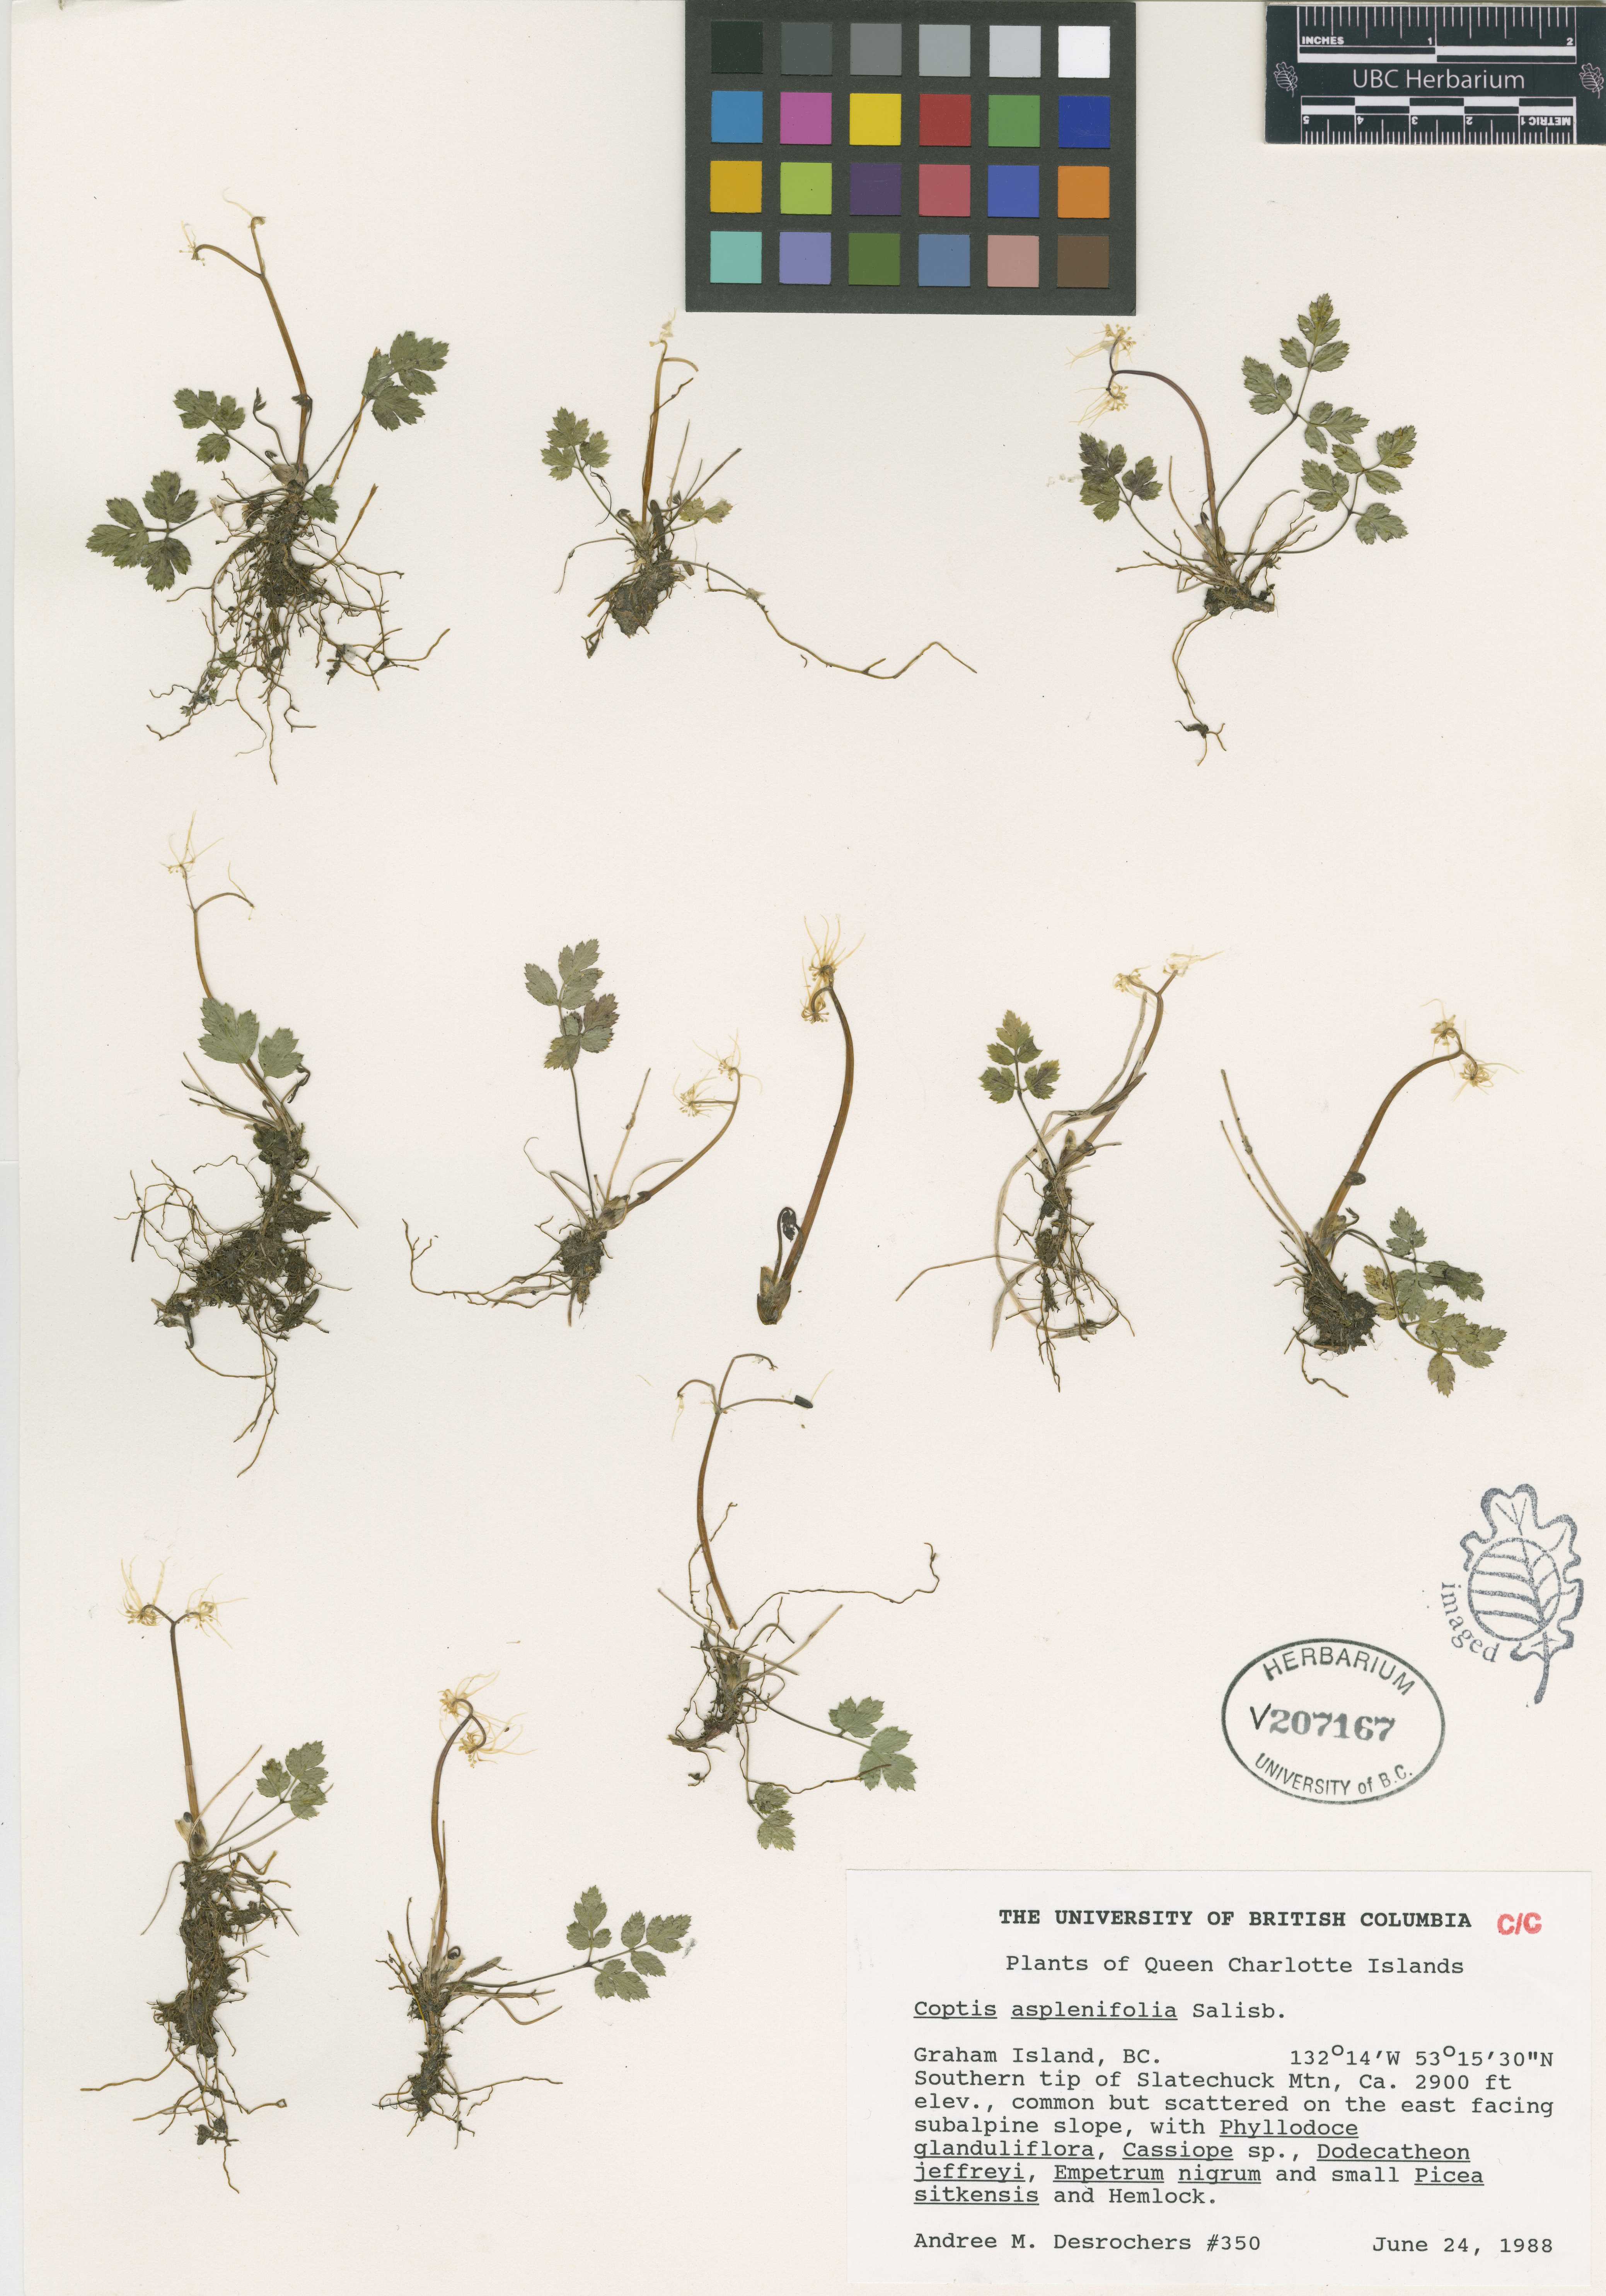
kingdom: Plantae
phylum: Tracheophyta
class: Magnoliopsida
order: Ranunculales
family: Ranunculaceae
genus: Coptis
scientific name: Coptis aspleniifolia
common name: Fern-leaved goldthread
